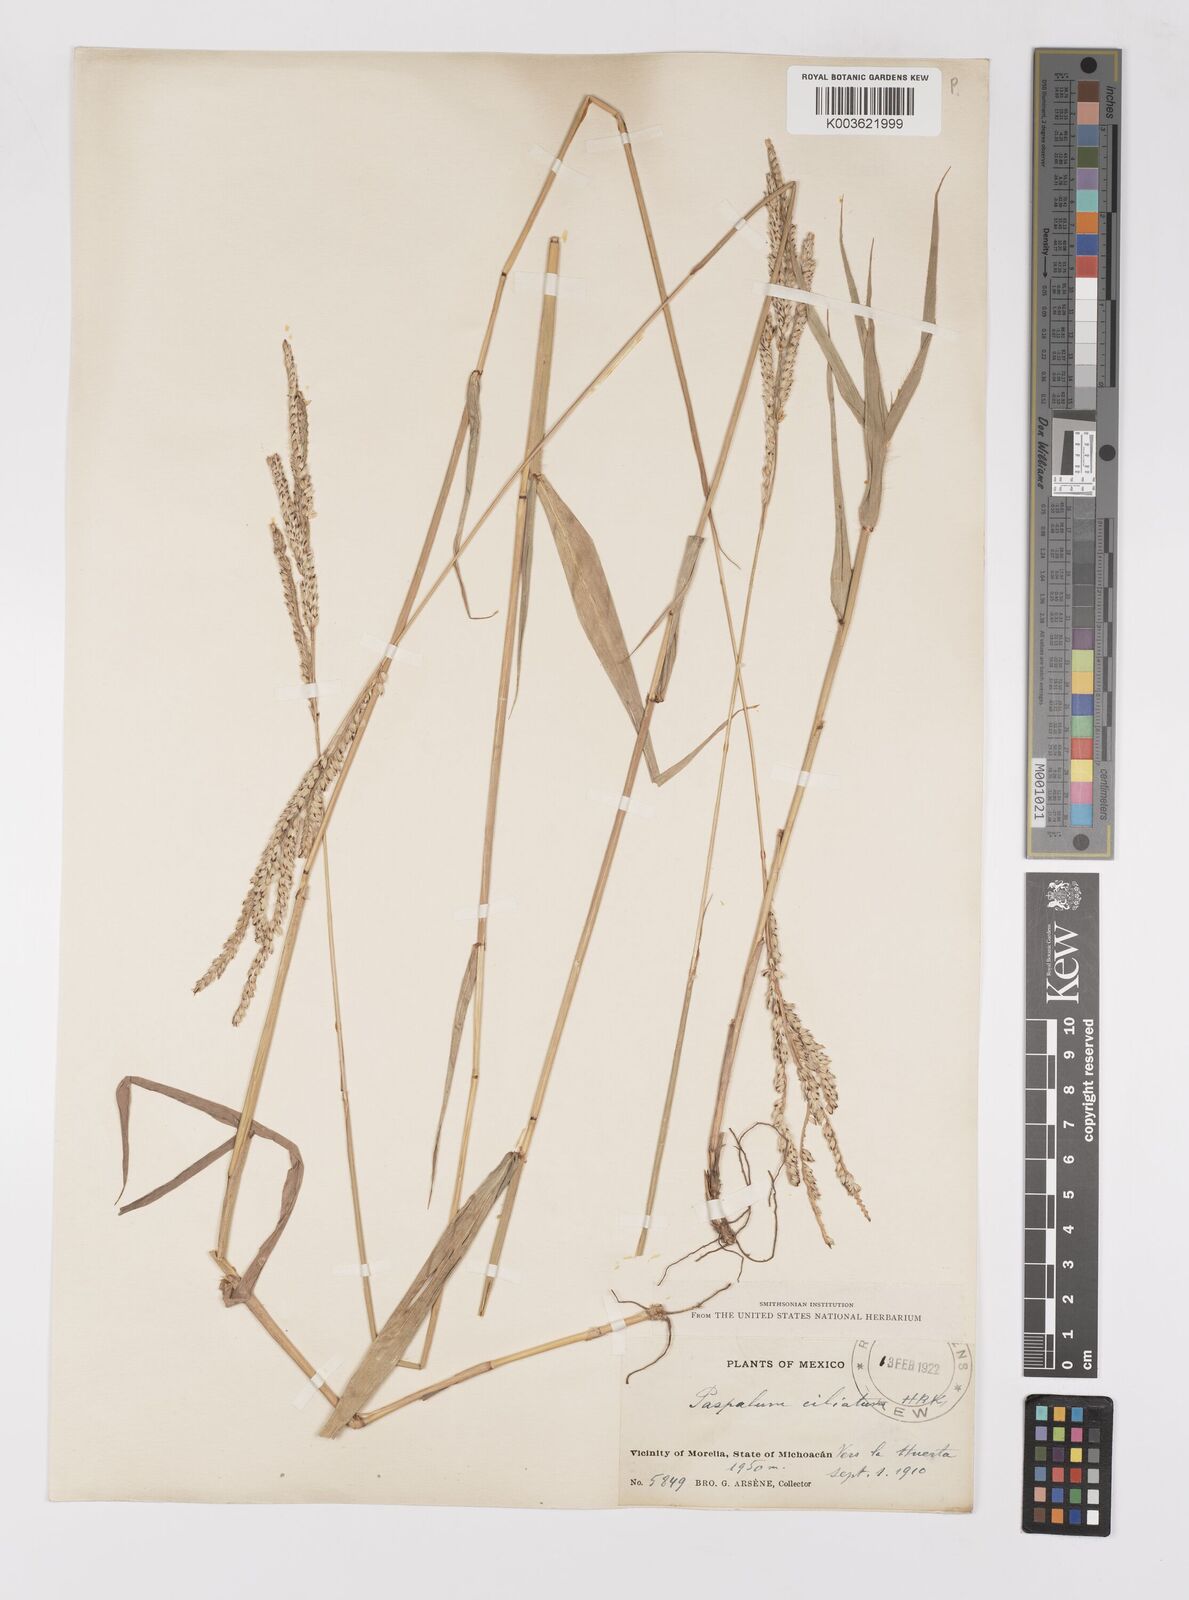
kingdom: Plantae
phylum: Tracheophyta
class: Liliopsida
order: Poales
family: Poaceae
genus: Paspalum
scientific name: Paspalum humboldtianum
